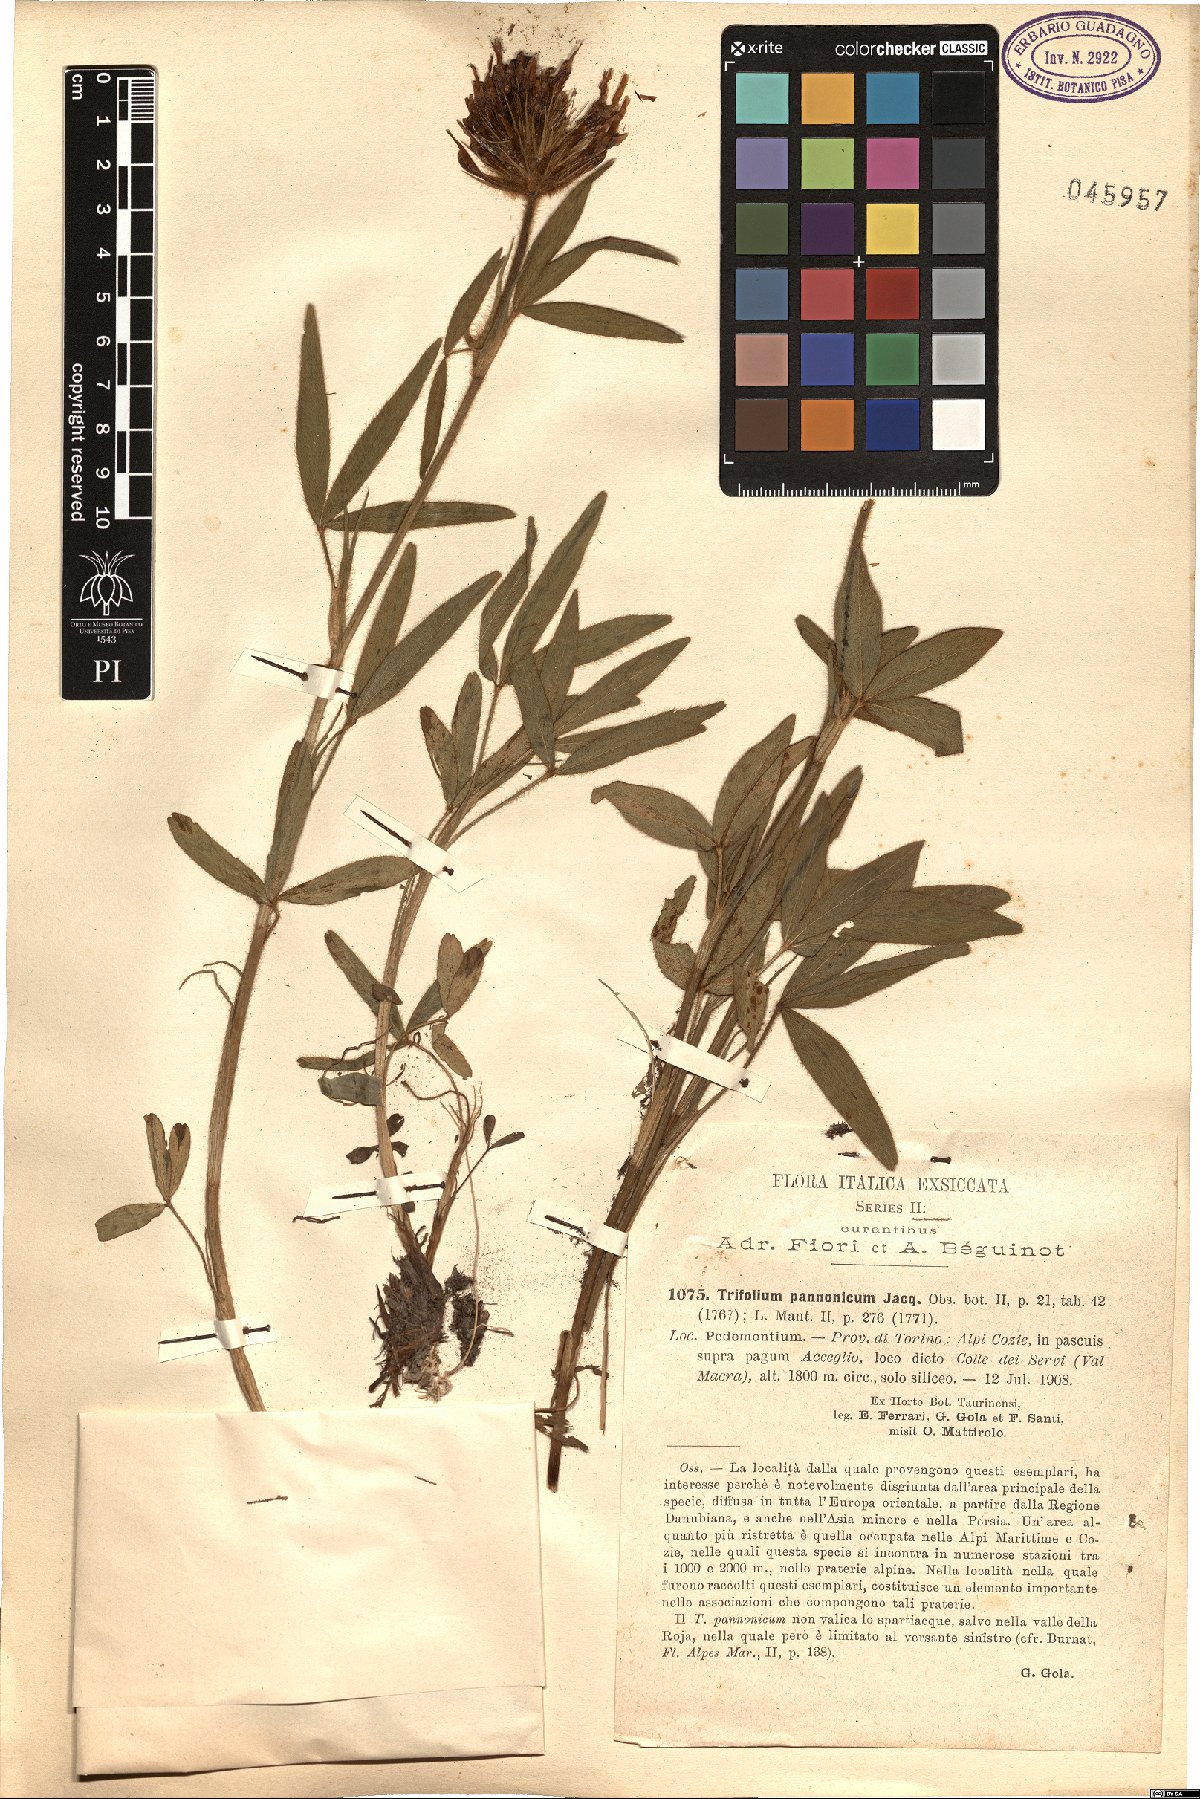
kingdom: Plantae
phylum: Tracheophyta
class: Magnoliopsida
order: Fabales
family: Fabaceae
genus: Trifolium
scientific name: Trifolium pannonicum
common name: Hungarian clover
